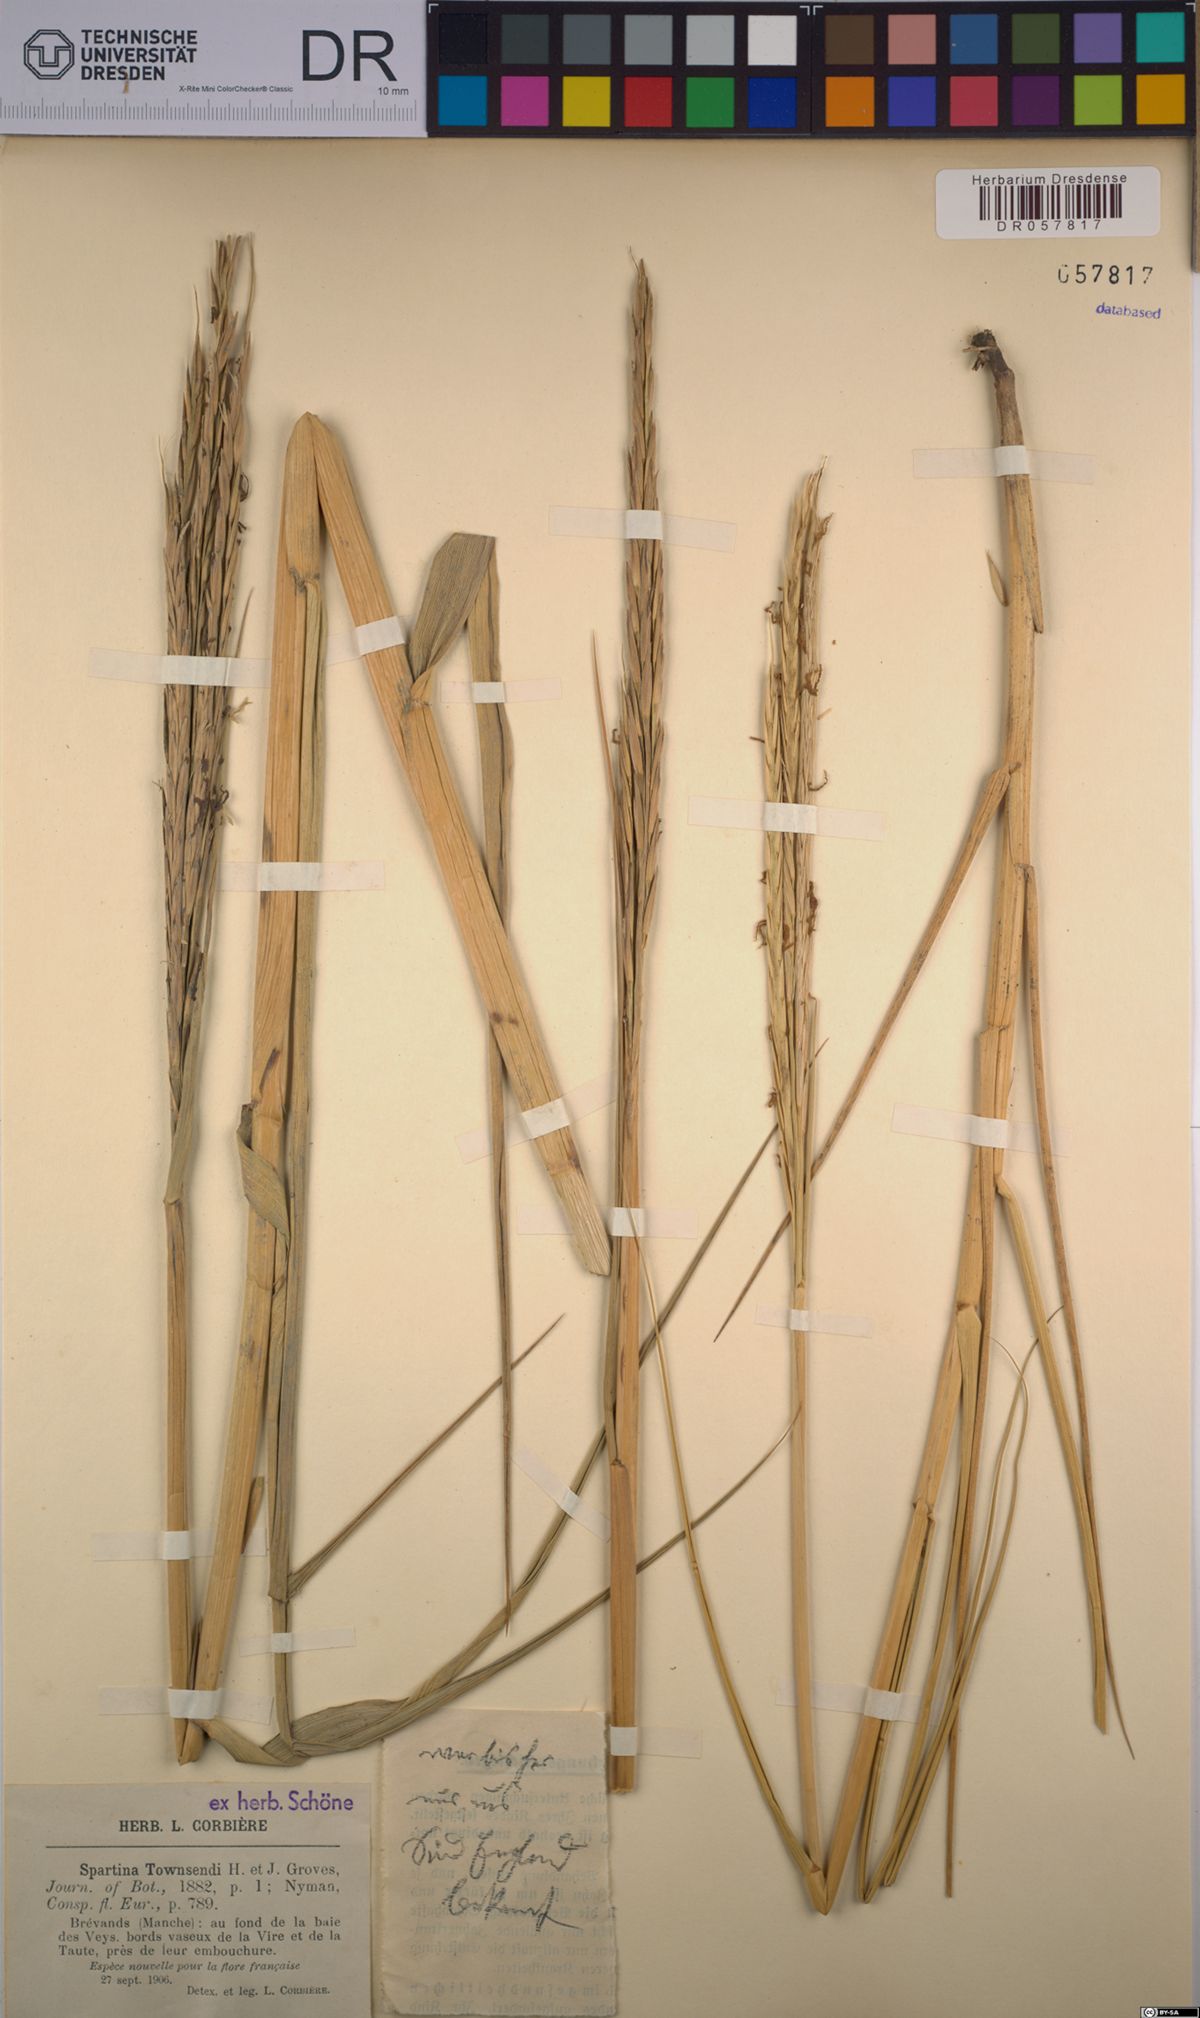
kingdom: Plantae
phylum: Tracheophyta
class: Liliopsida
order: Poales
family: Poaceae
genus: Sporobolus
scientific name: Sporobolus townsendii
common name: Townsend's cordgrass
